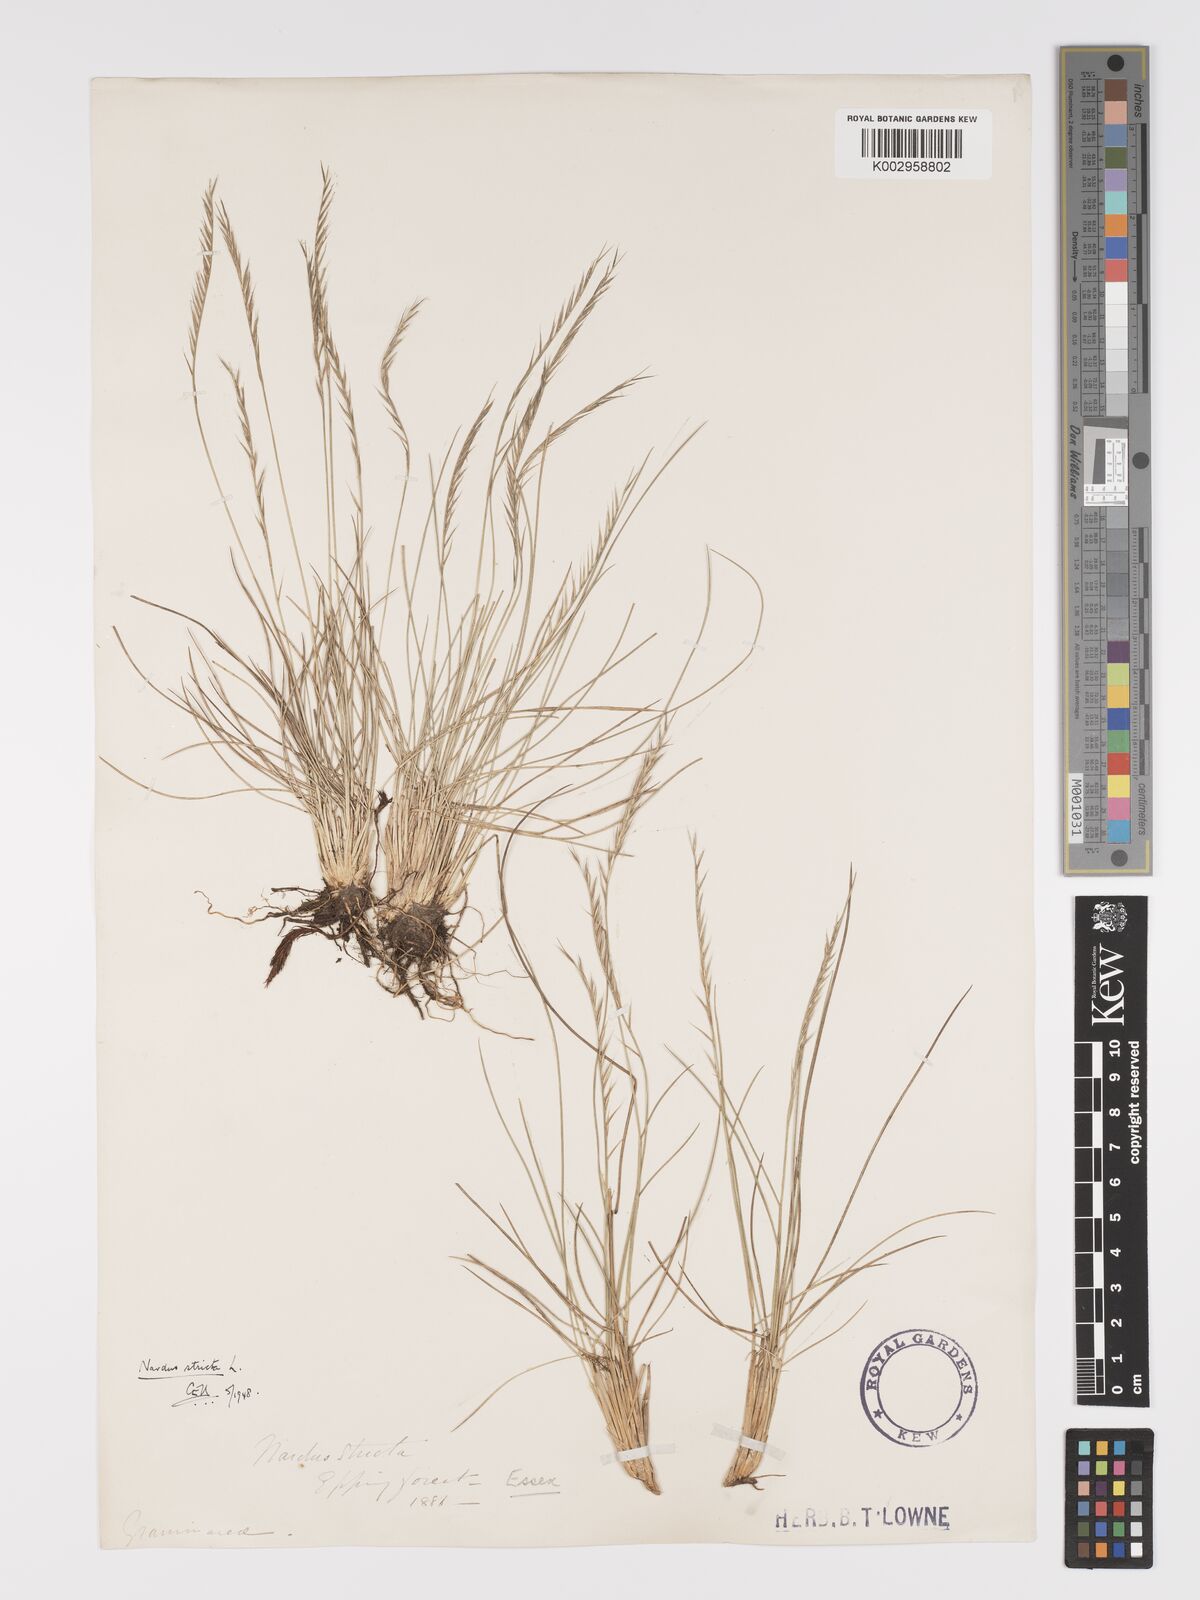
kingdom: Plantae
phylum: Tracheophyta
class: Liliopsida
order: Poales
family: Poaceae
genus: Nardus
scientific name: Nardus stricta
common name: Mat-grass
